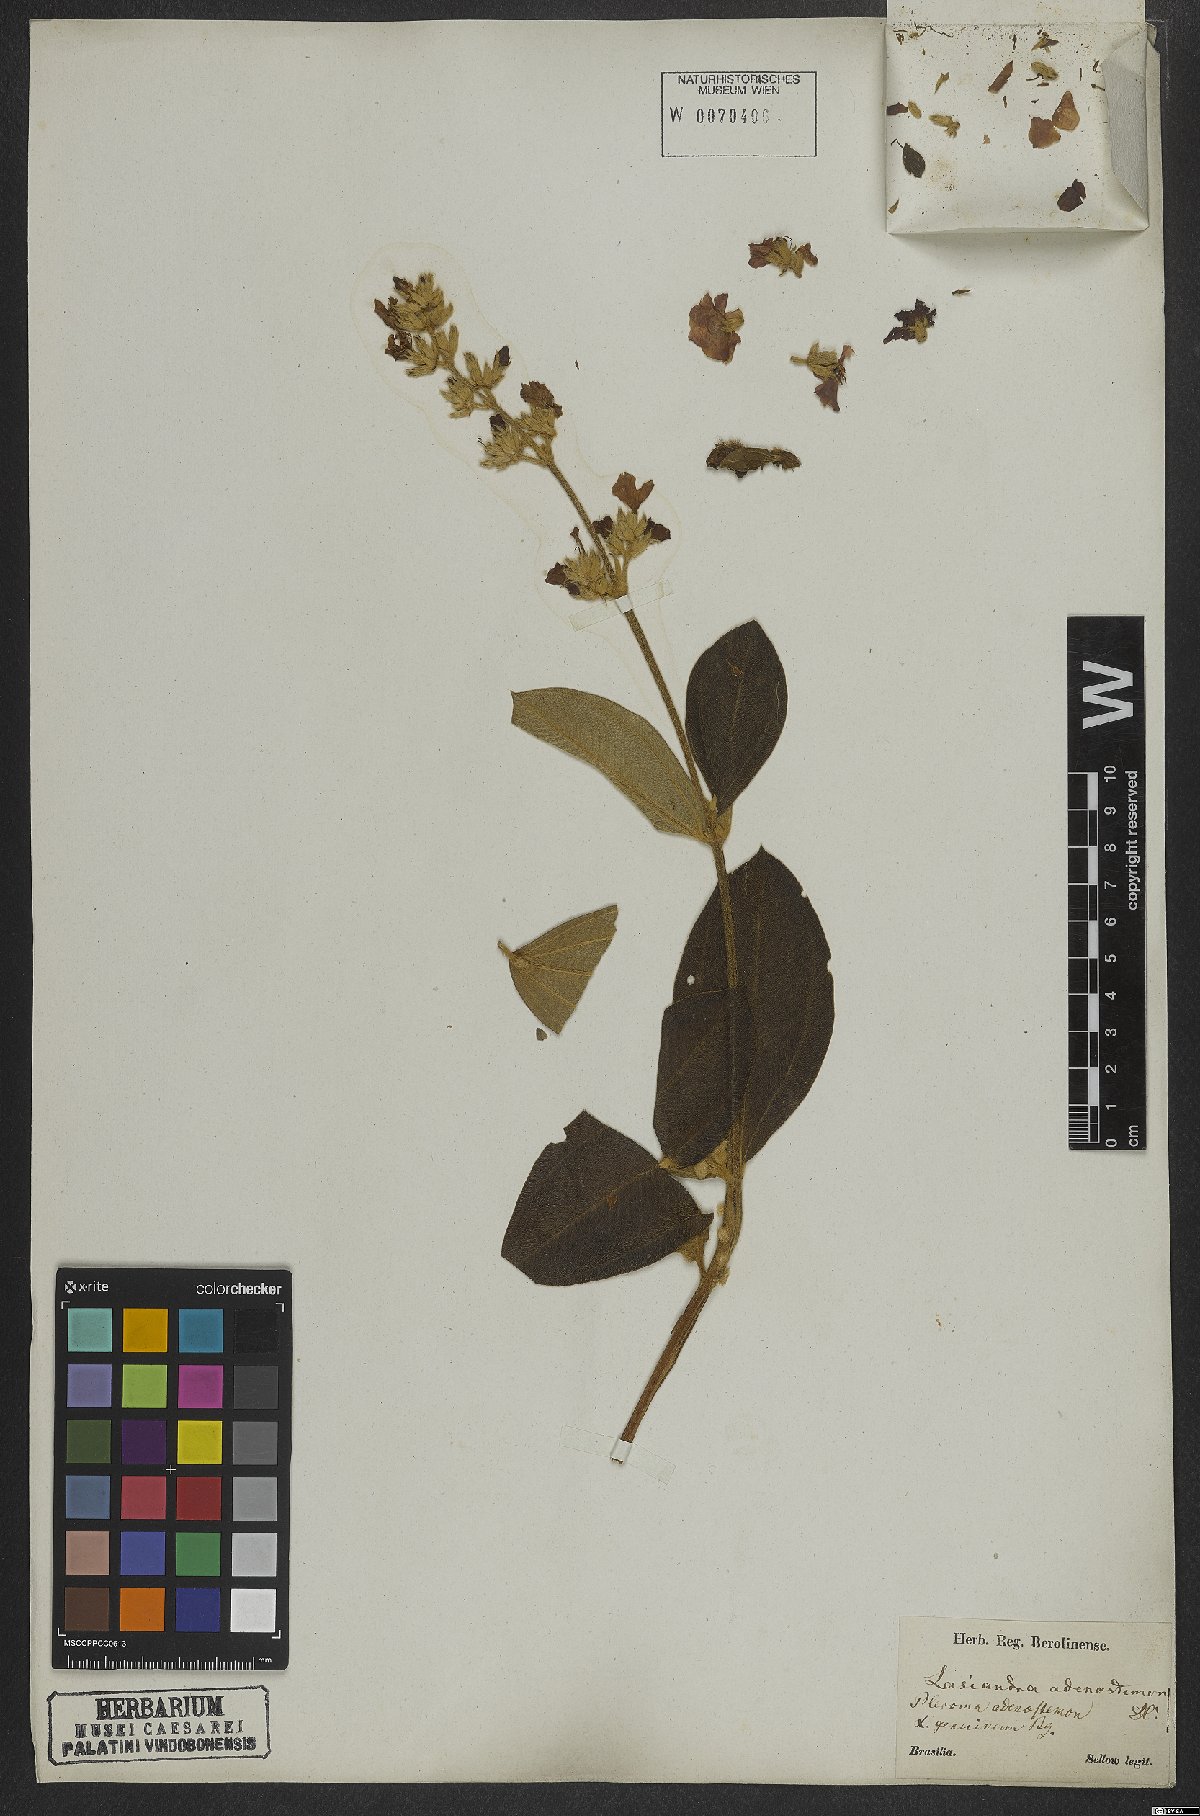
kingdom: Plantae
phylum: Tracheophyta
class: Magnoliopsida
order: Myrtales
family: Melastomataceae
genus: Pleroma
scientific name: Pleroma heteromallum
